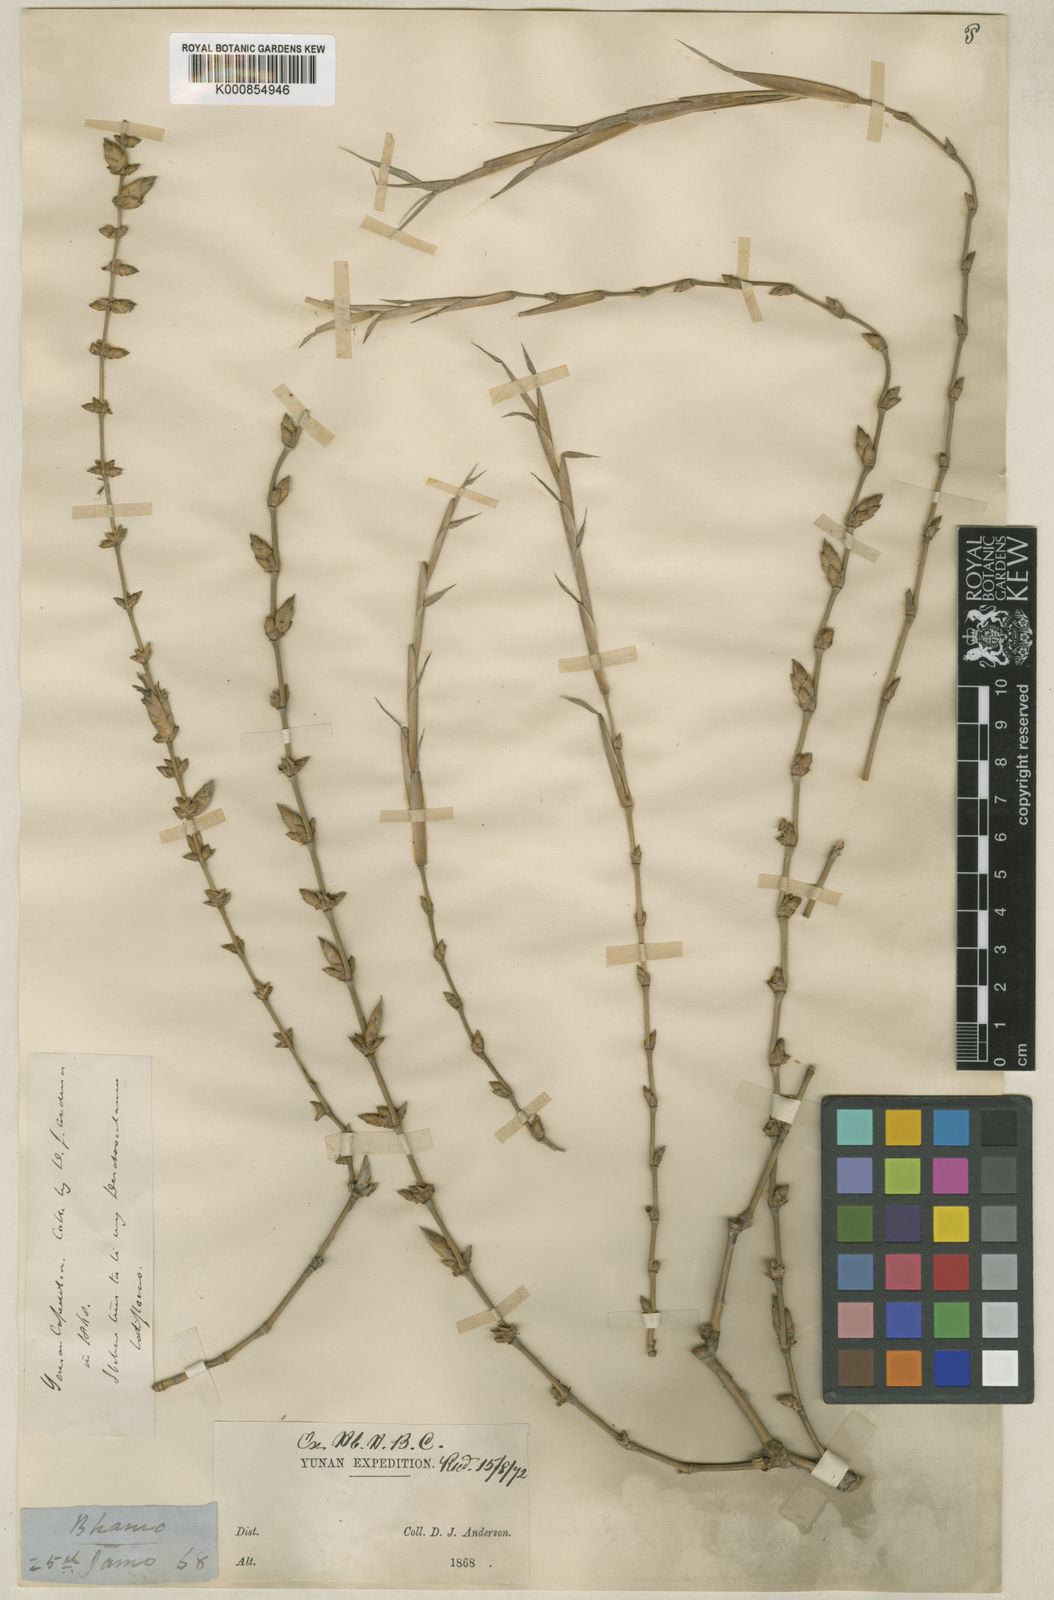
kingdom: Plantae
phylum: Tracheophyta
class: Liliopsida
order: Poales
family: Poaceae
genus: Dendrocalamus
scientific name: Dendrocalamus
